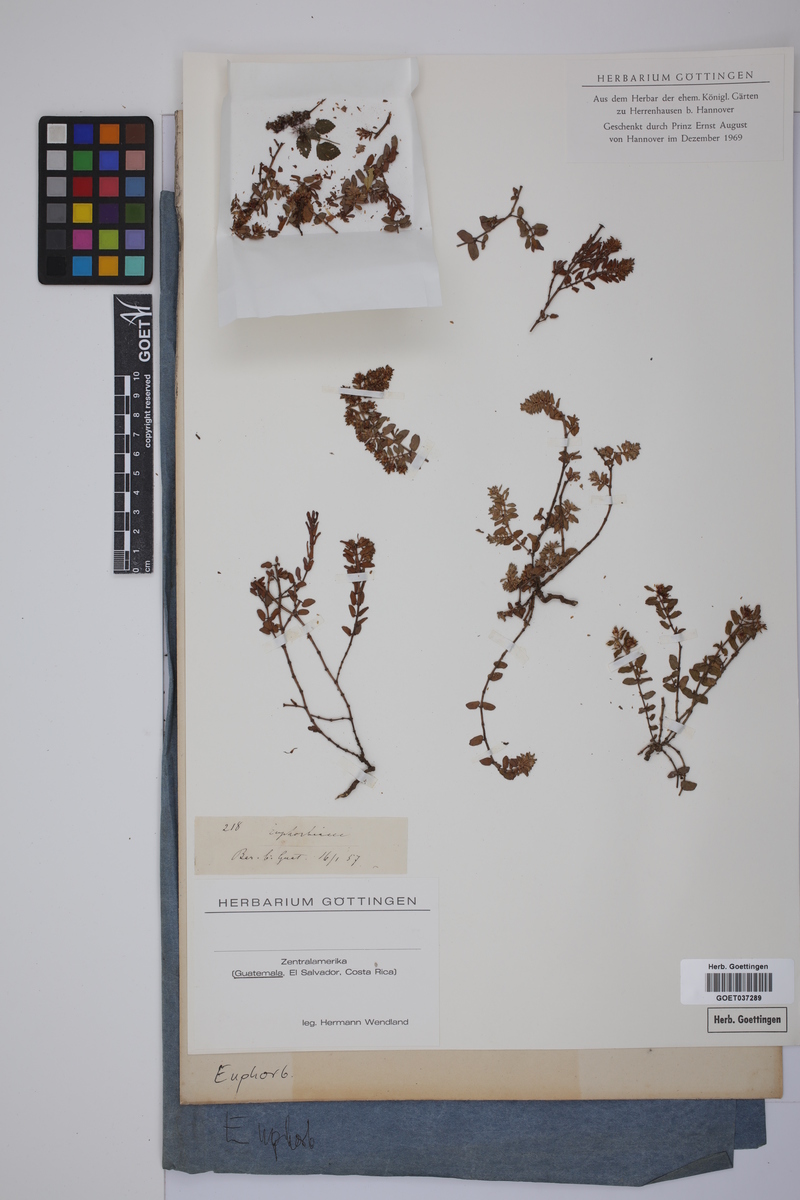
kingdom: Plantae
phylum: Tracheophyta
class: Magnoliopsida
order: Malpighiales
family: Euphorbiaceae
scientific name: Euphorbiaceae
